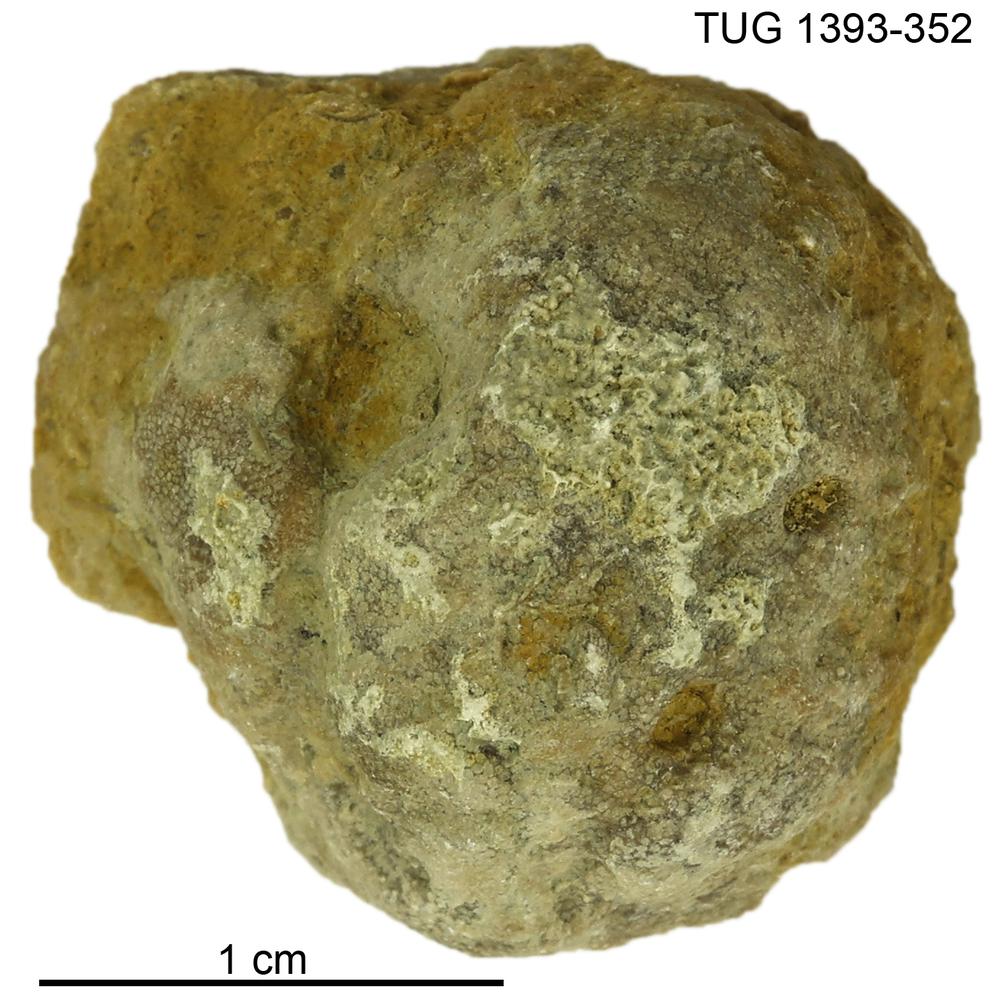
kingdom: Animalia
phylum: Bryozoa
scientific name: Bryozoa
